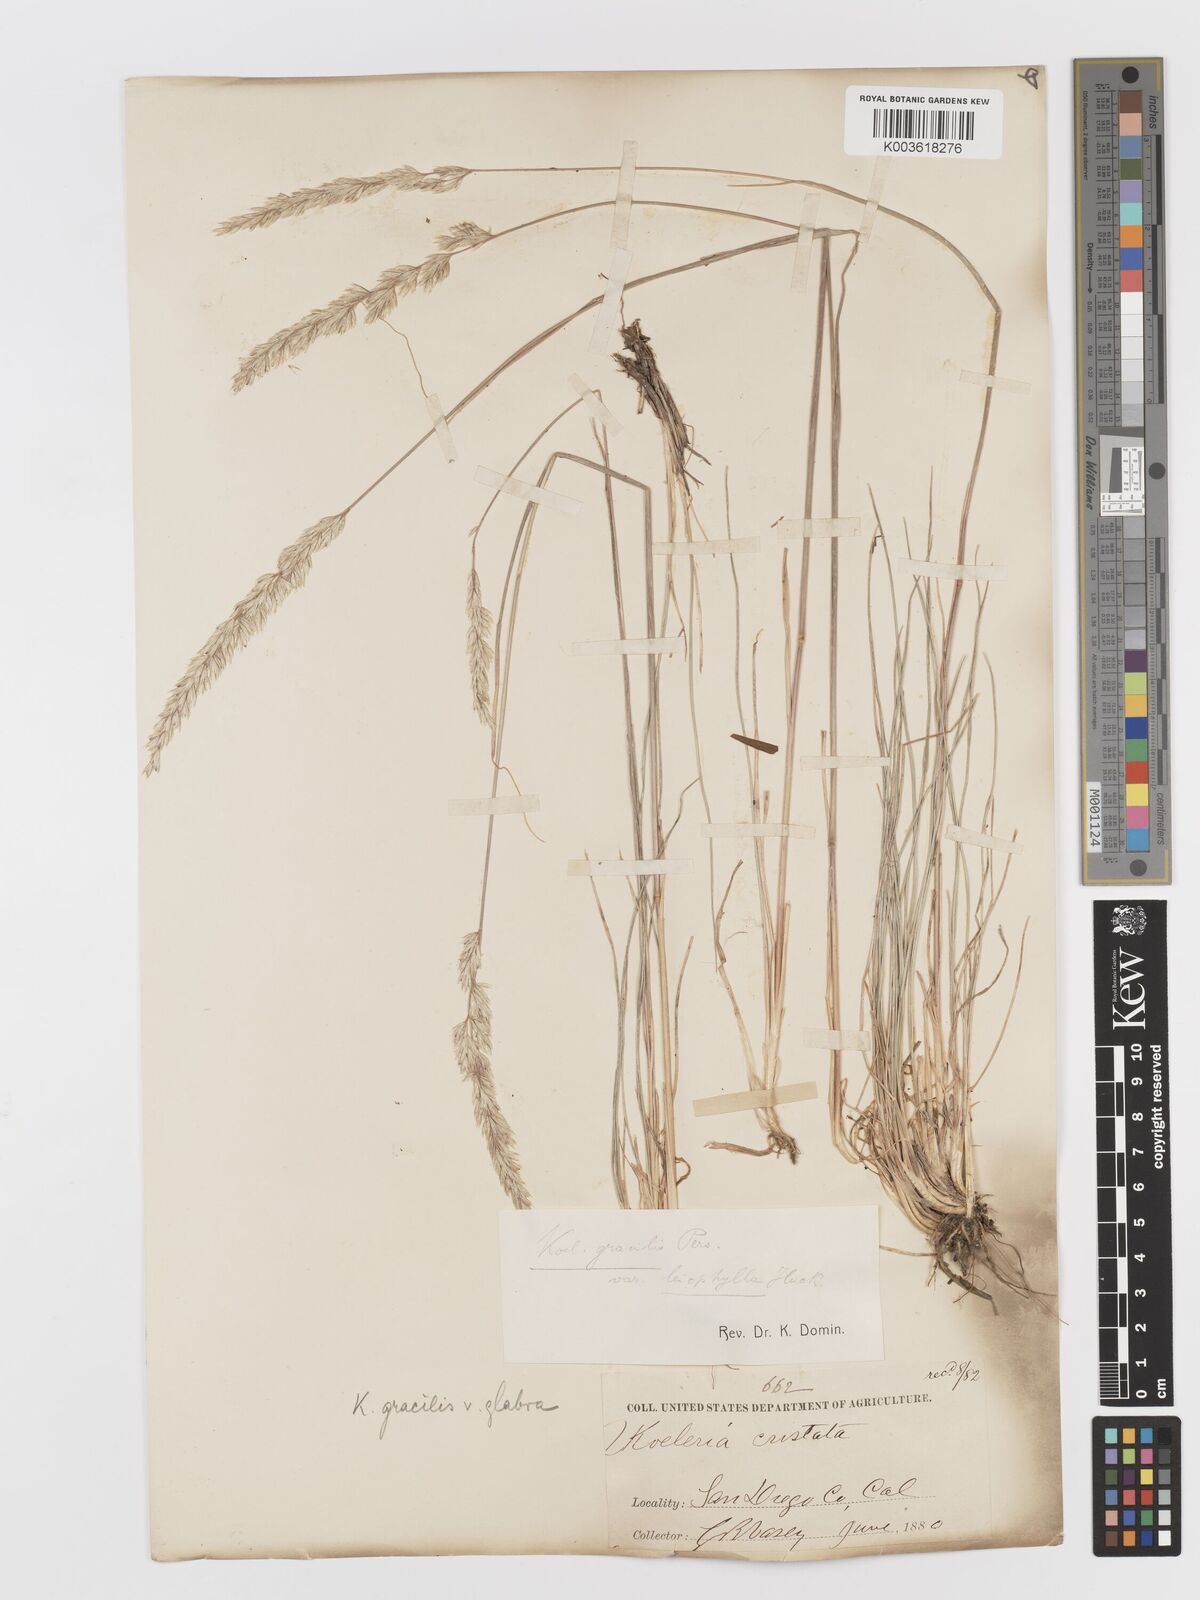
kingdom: Plantae
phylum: Tracheophyta
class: Liliopsida
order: Poales
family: Poaceae
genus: Koeleria
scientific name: Koeleria macrantha
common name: Crested hair-grass
